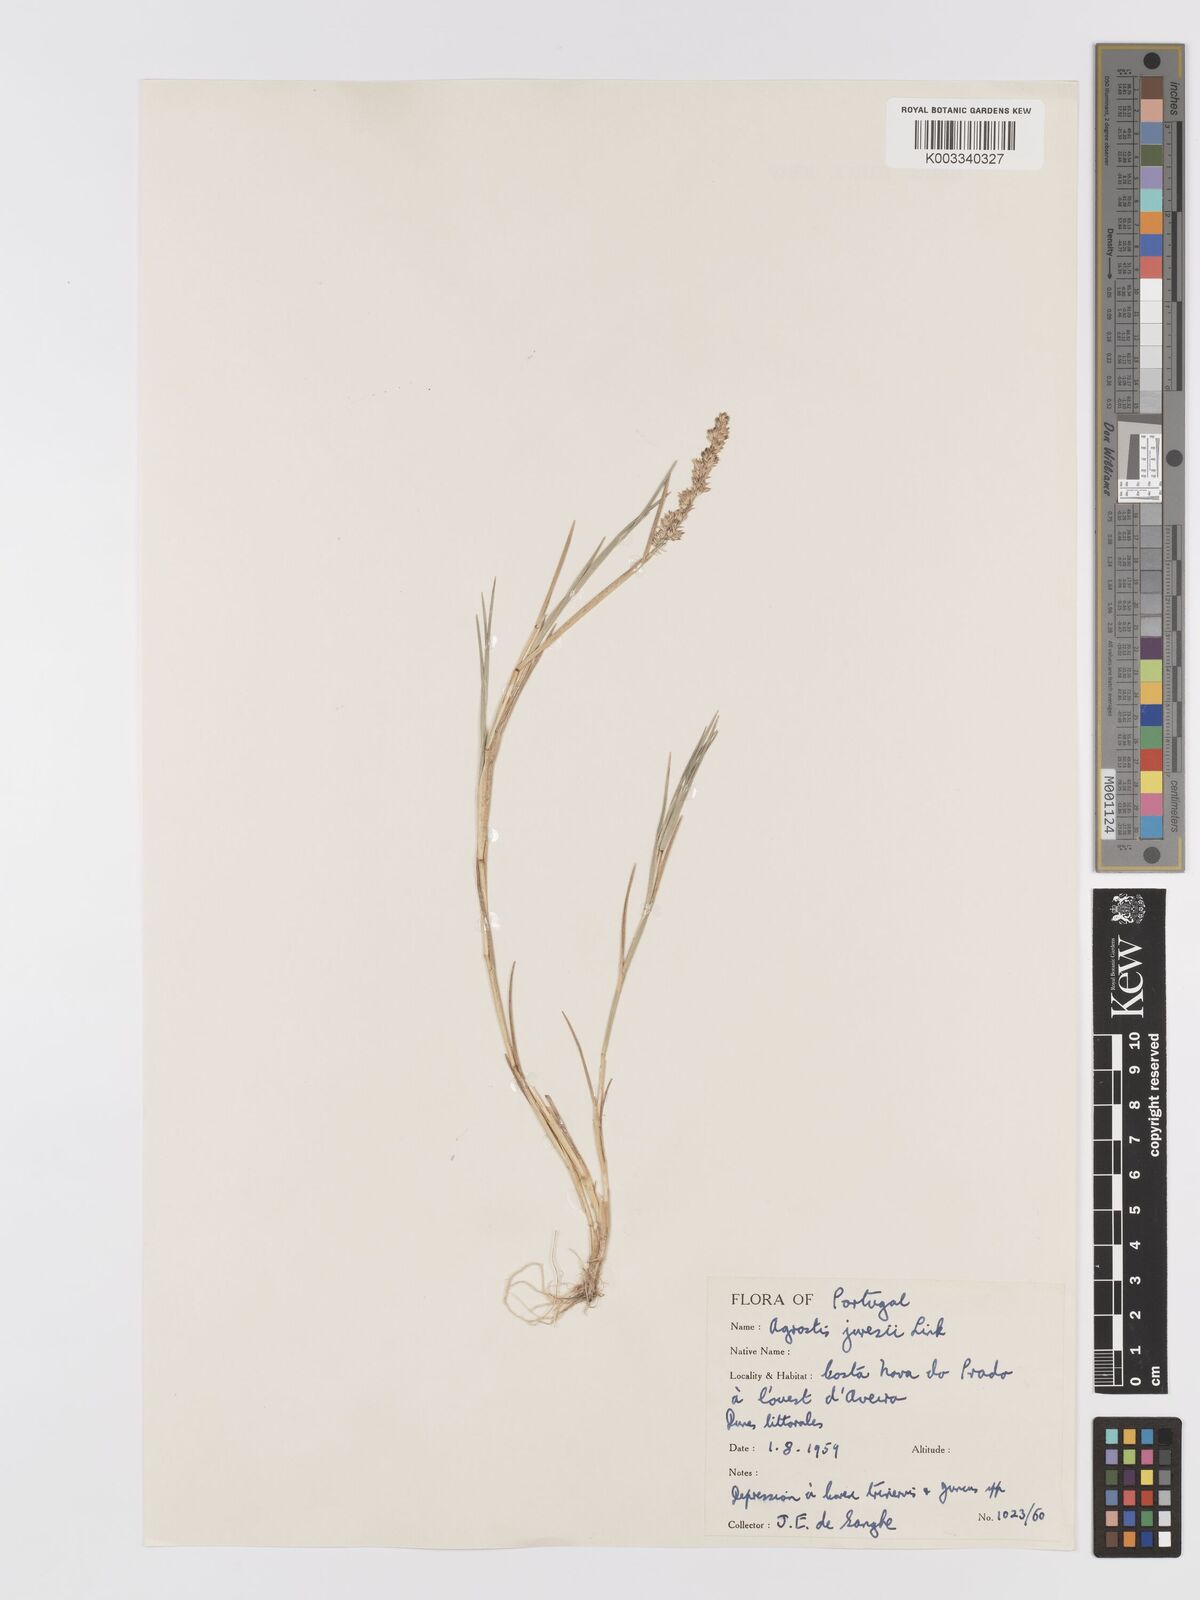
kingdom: Plantae
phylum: Tracheophyta
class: Liliopsida
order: Poales
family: Poaceae
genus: Agrostis
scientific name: Agrostis juressi
